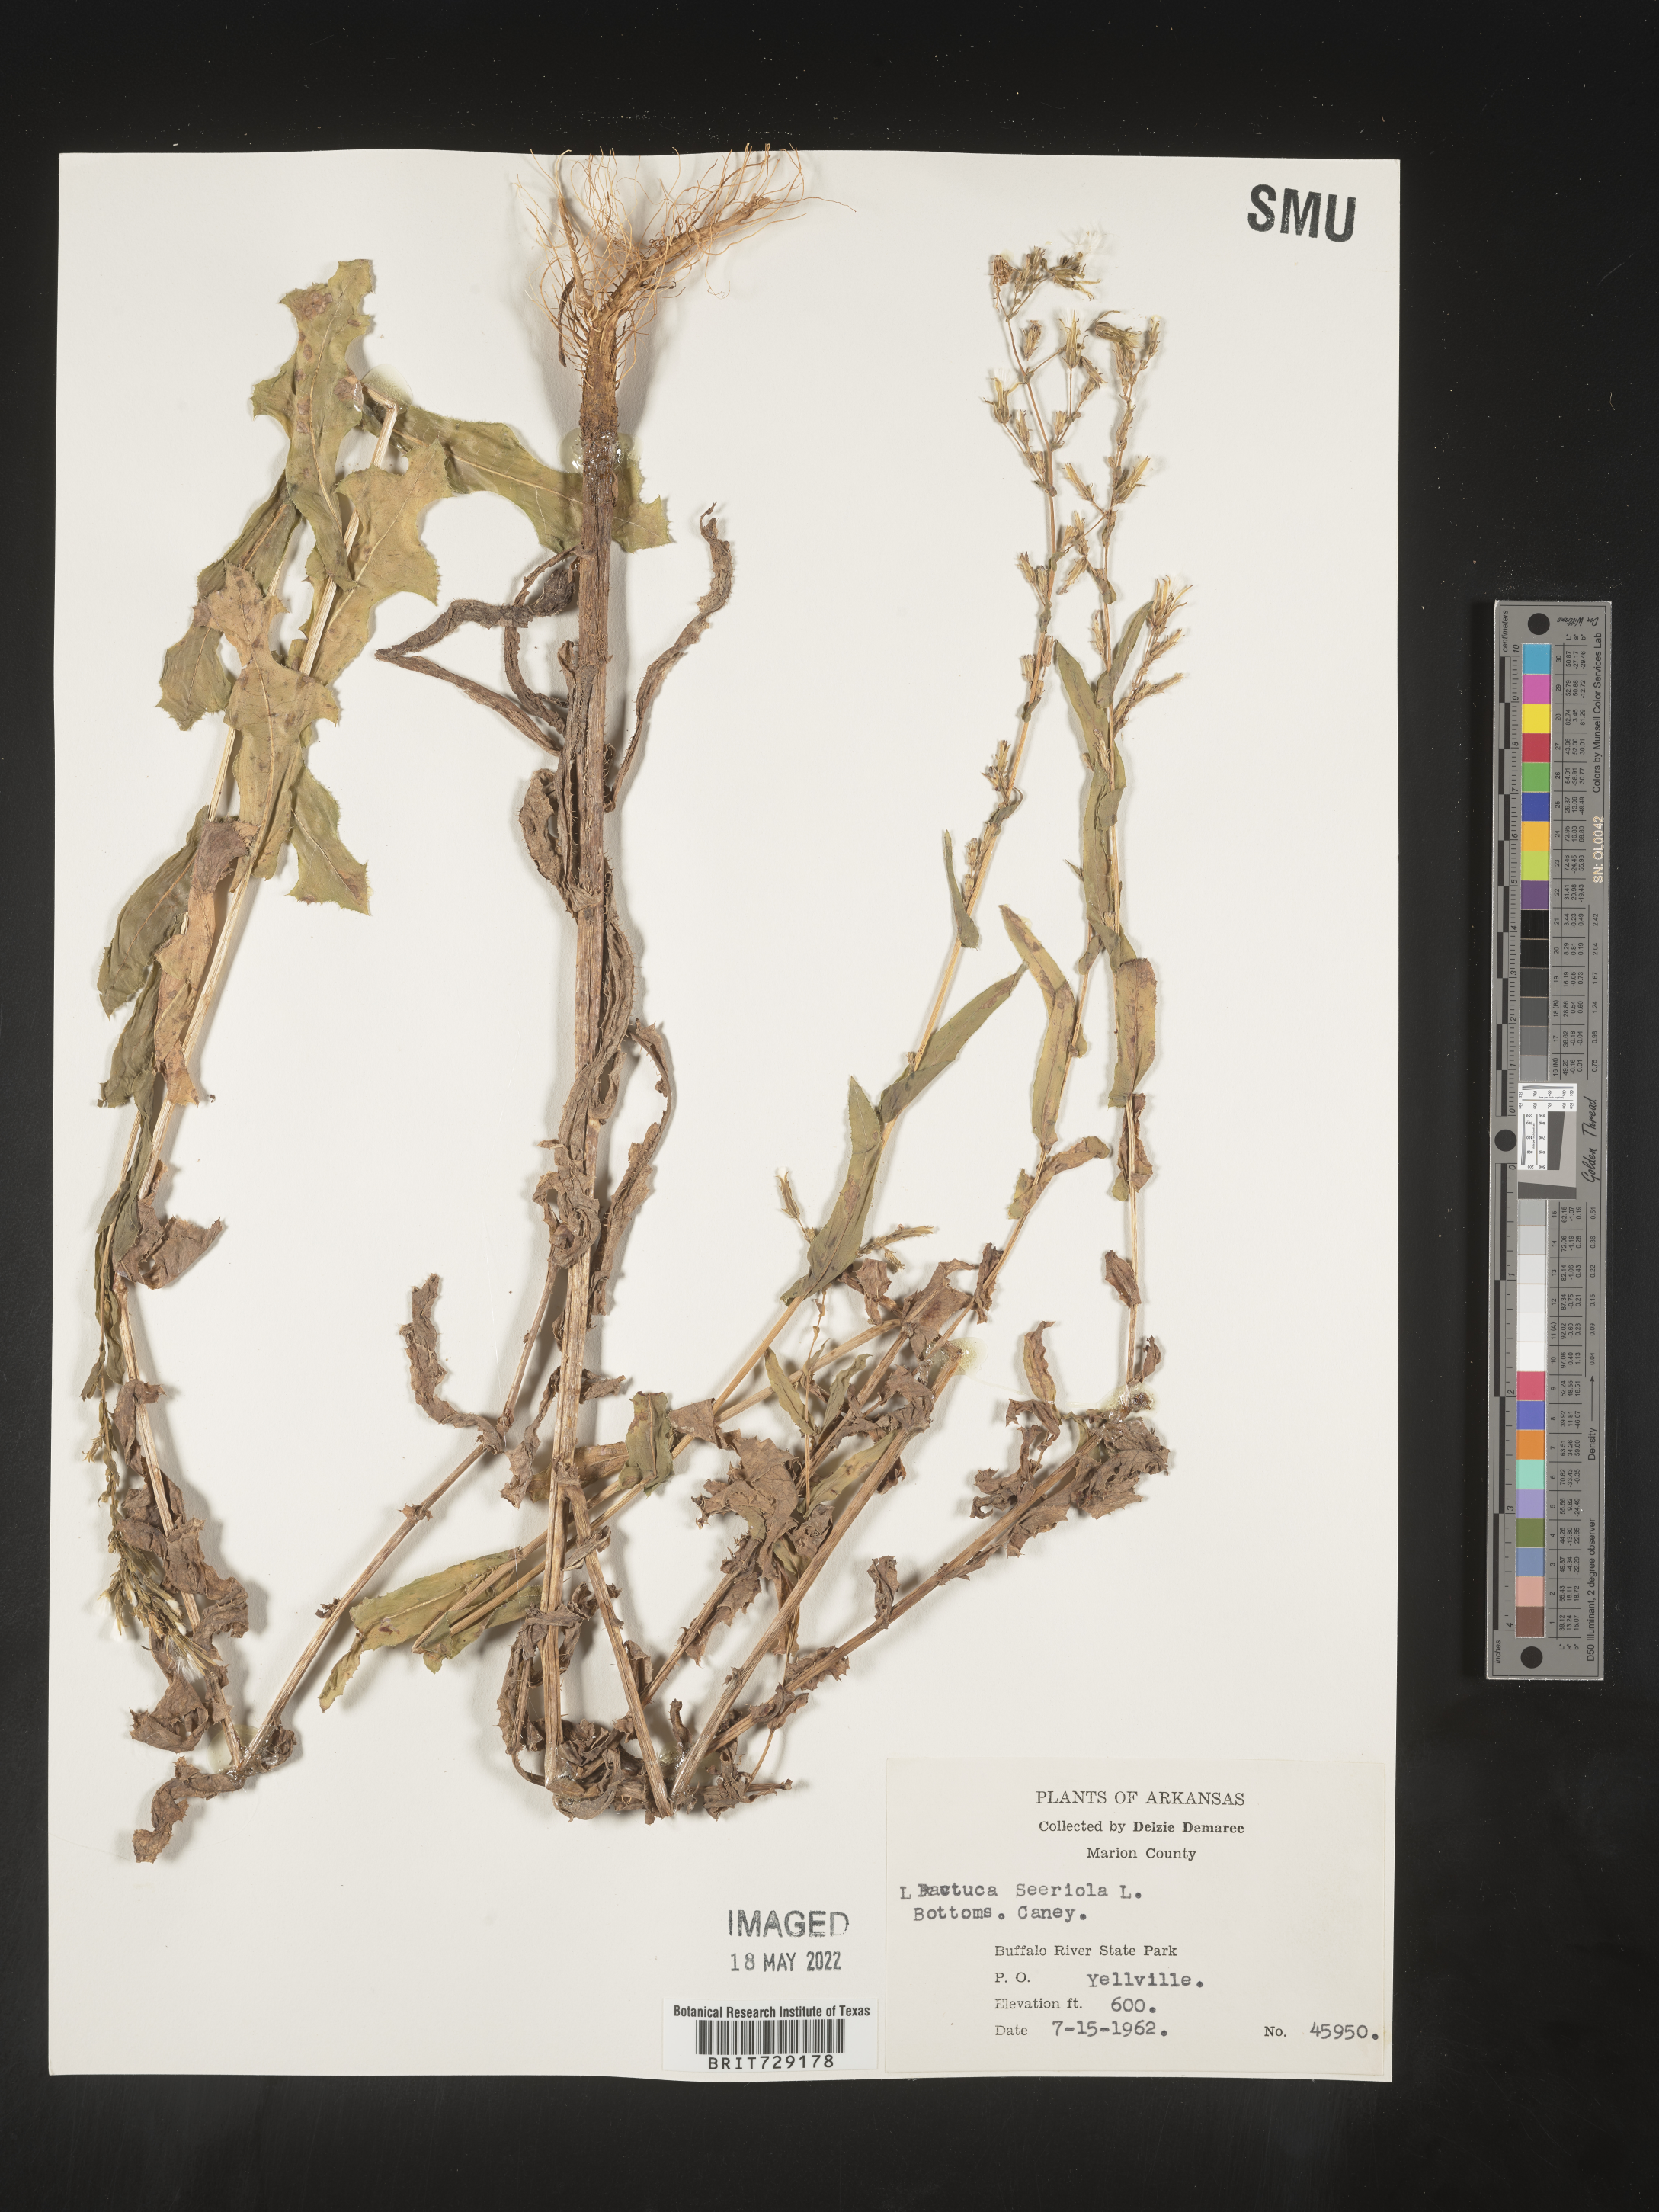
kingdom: Plantae
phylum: Tracheophyta
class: Magnoliopsida
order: Asterales
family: Asteraceae
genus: Lactuca
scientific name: Lactuca serriola
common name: Prickly lettuce
